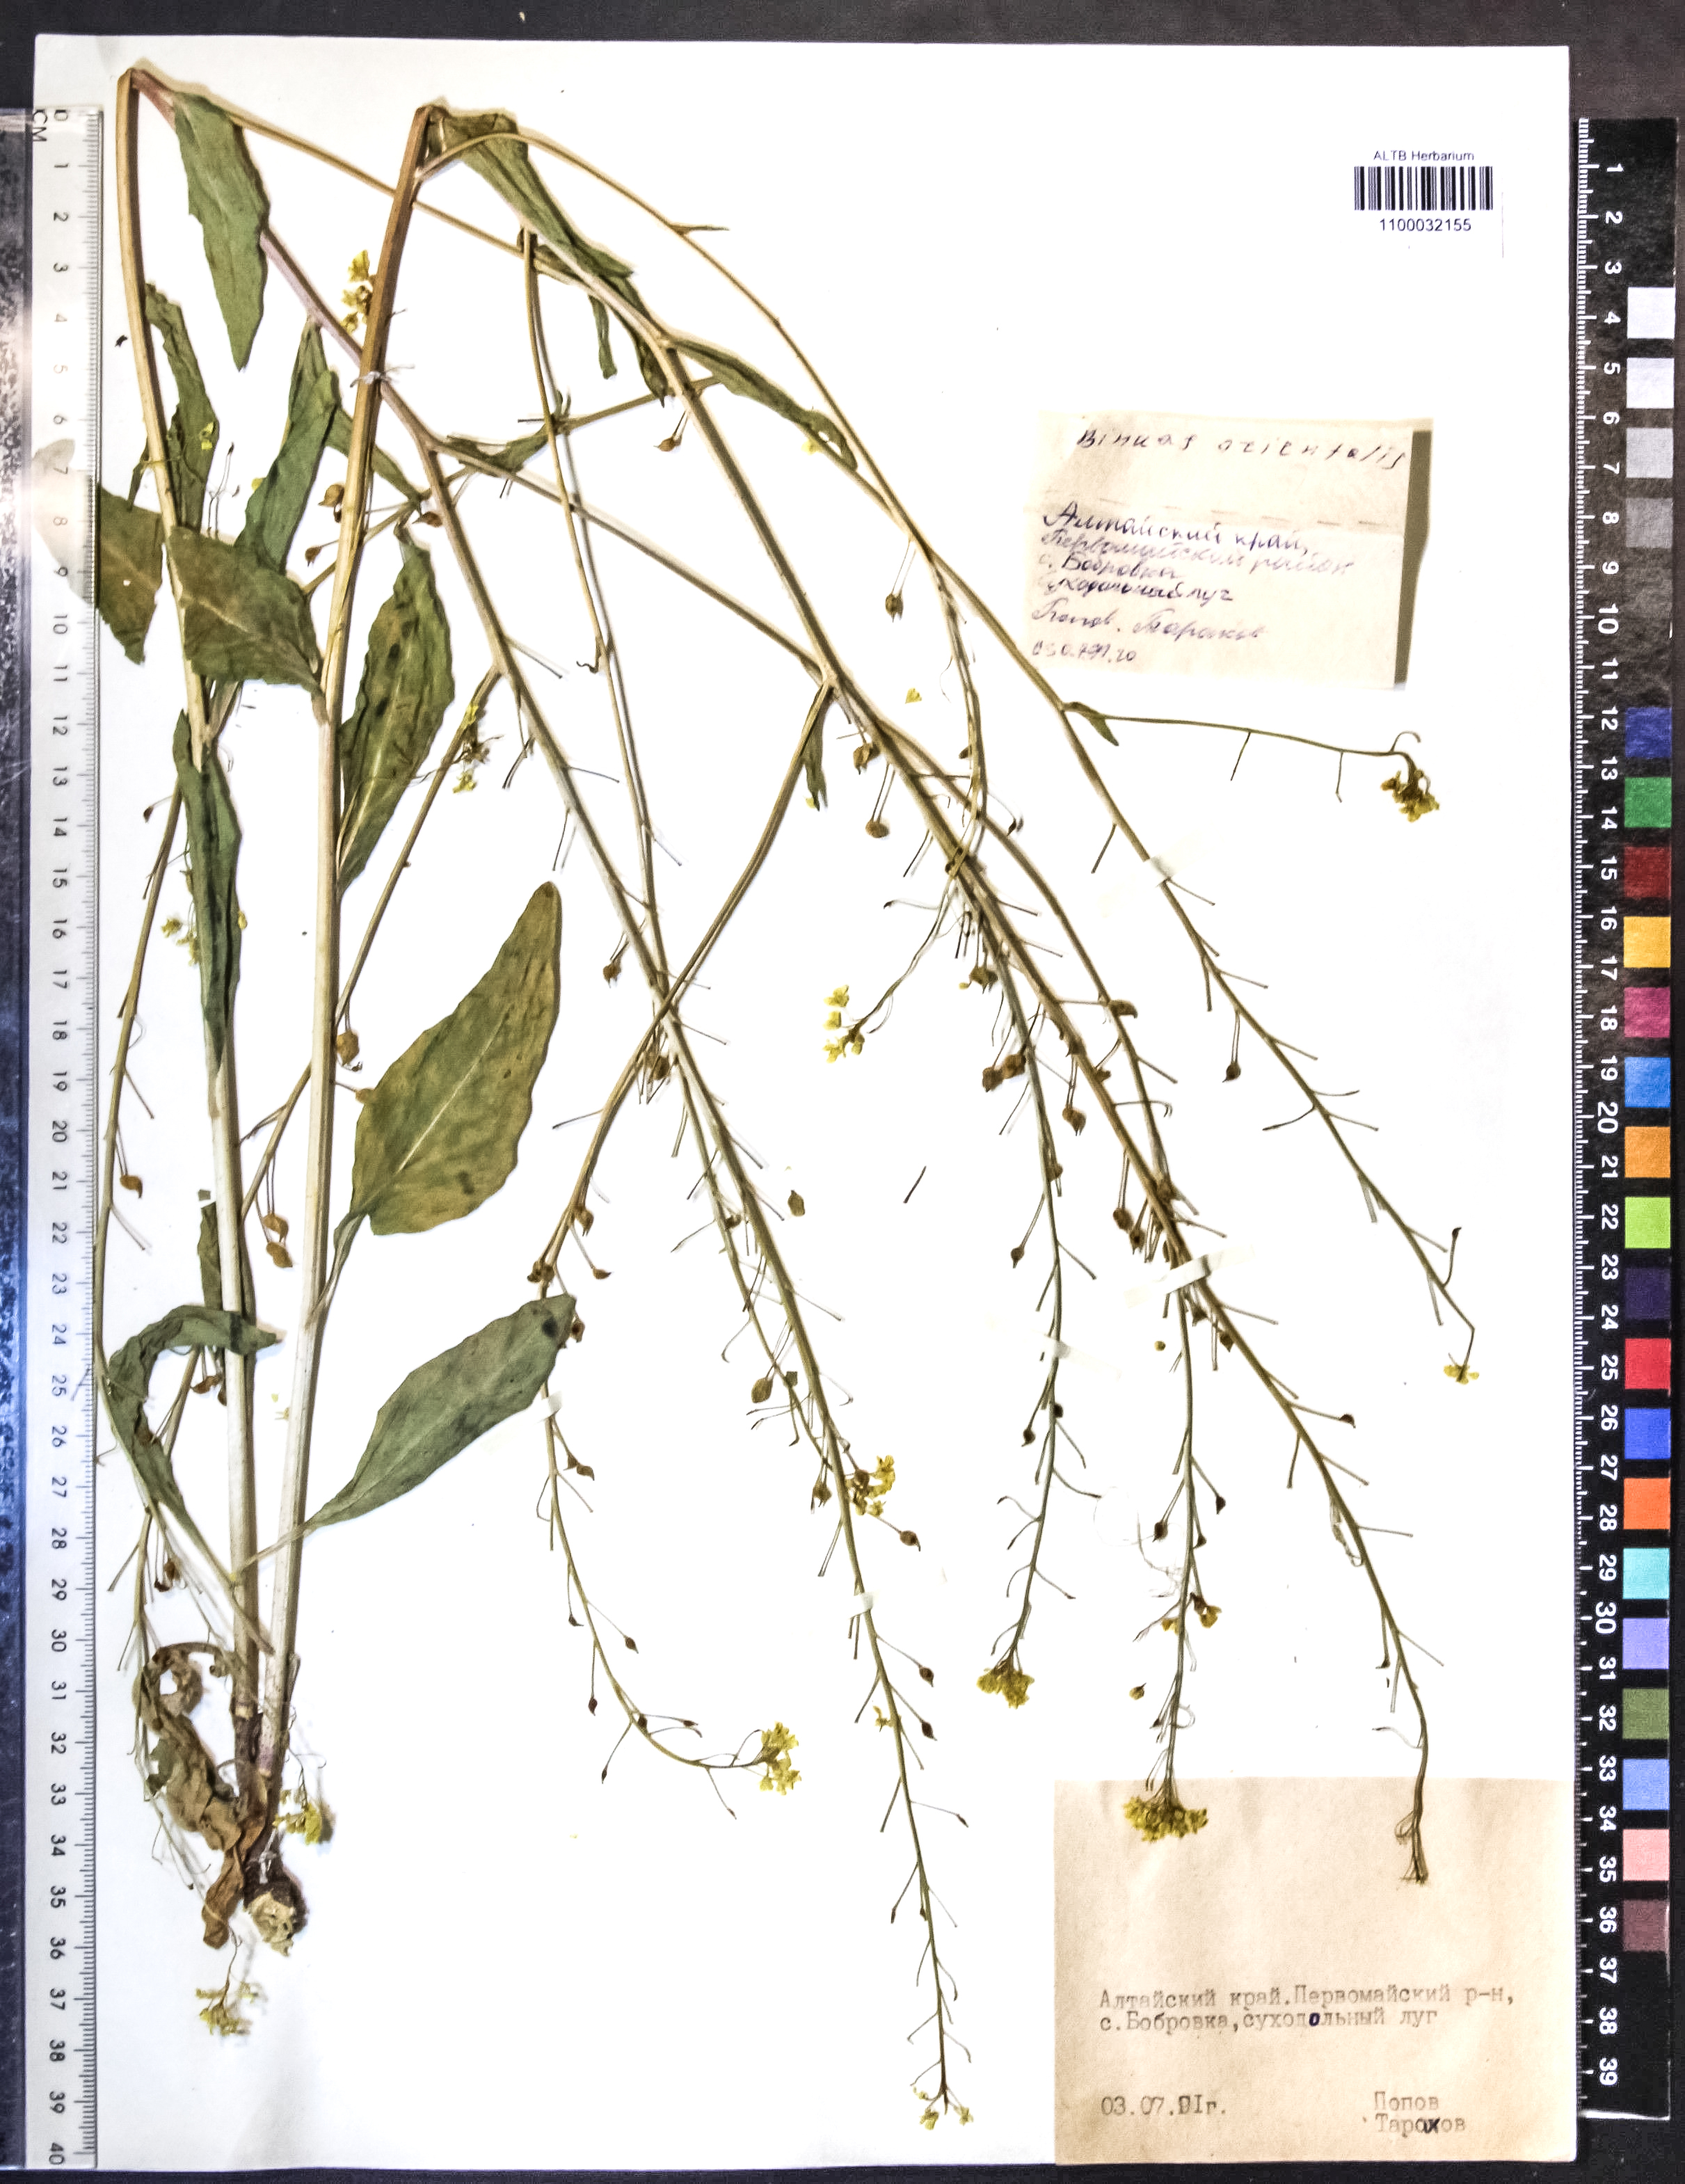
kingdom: Plantae
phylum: Tracheophyta
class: Magnoliopsida
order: Brassicales
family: Brassicaceae
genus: Bunias
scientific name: Bunias orientalis
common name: Warty-cabbage
